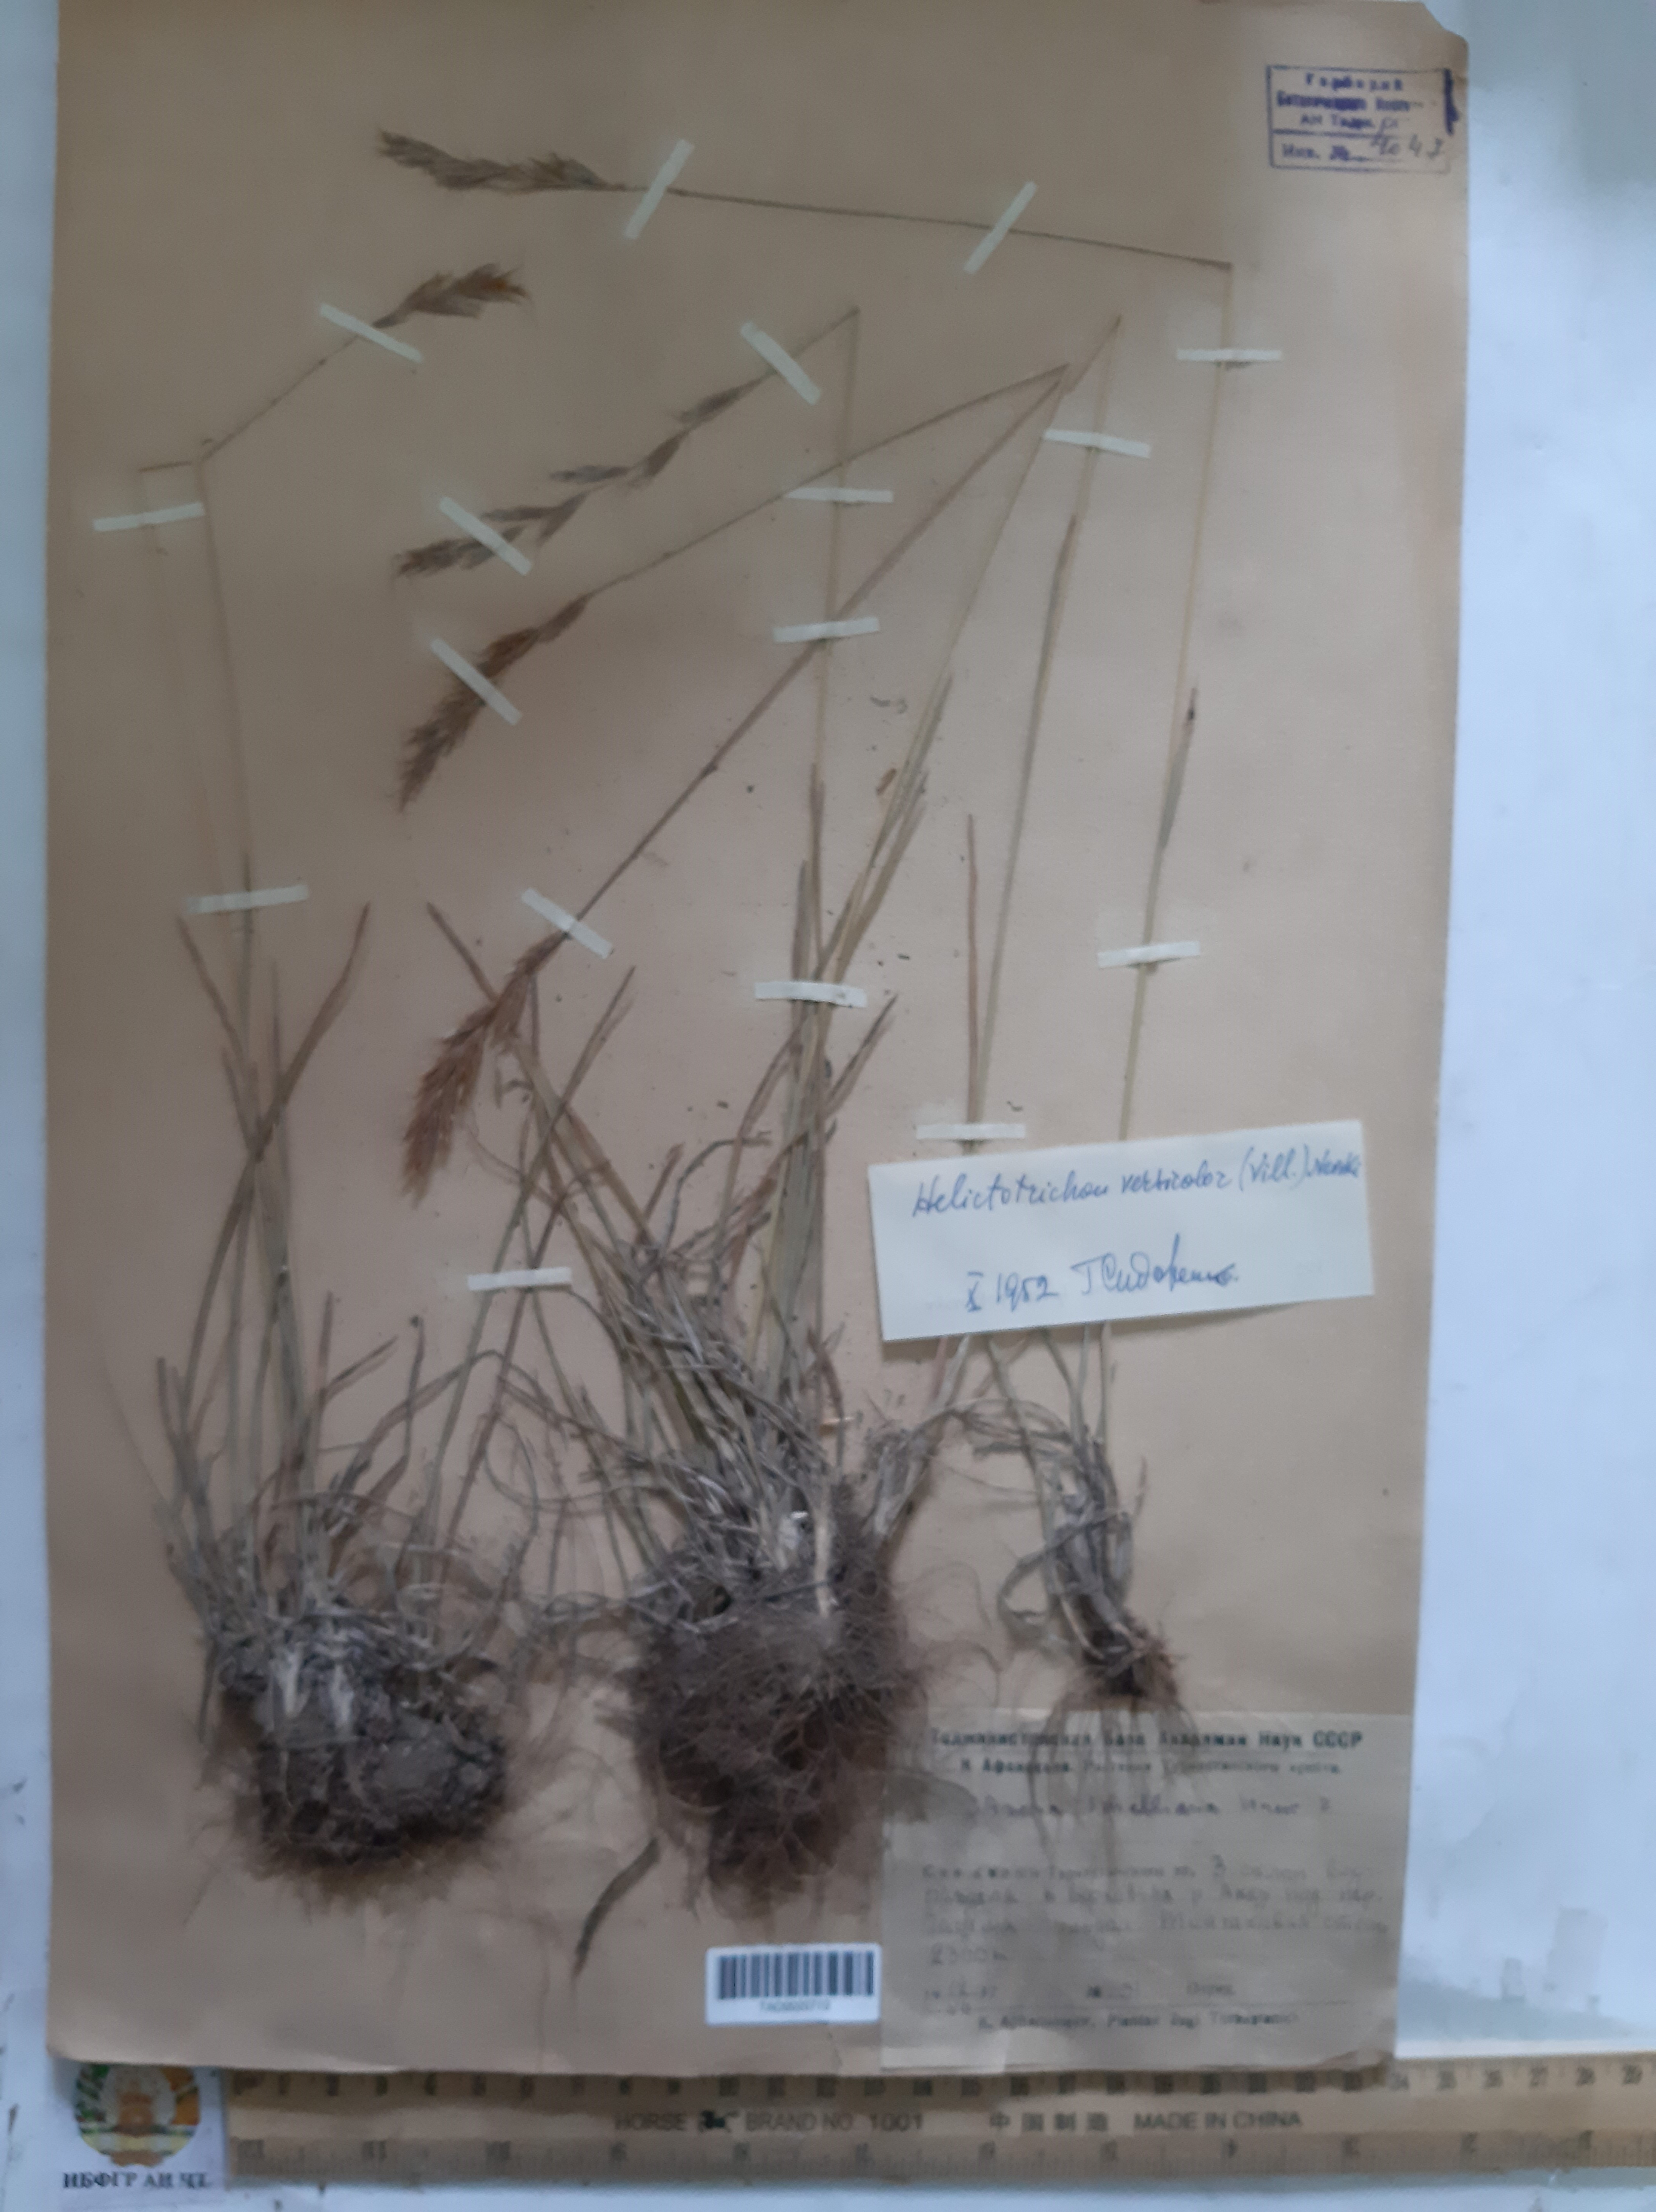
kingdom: Plantae
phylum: Tracheophyta
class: Liliopsida
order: Poales
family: Poaceae
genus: Helictochloa
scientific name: Helictochloa hookeri
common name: Hooker's alpine oatgrass
